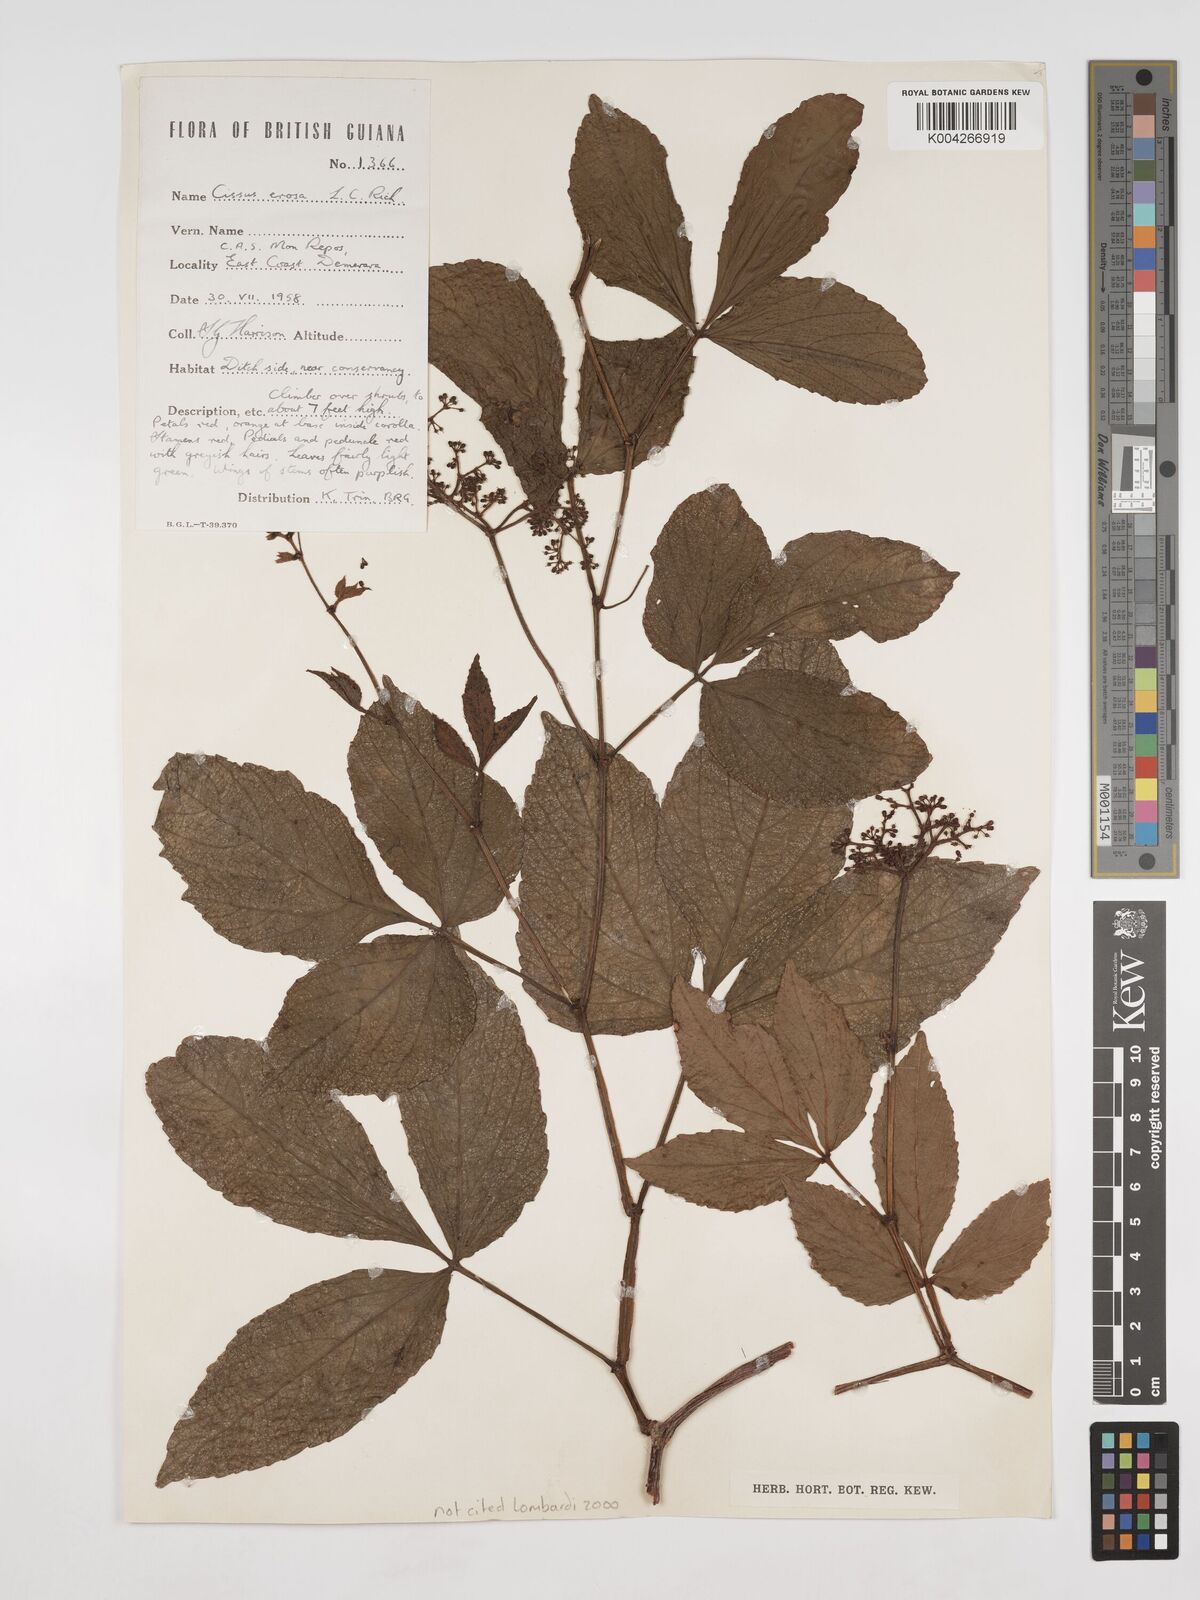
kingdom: Plantae
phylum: Tracheophyta
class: Magnoliopsida
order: Vitales
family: Vitaceae
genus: Cissus
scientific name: Cissus erosa
